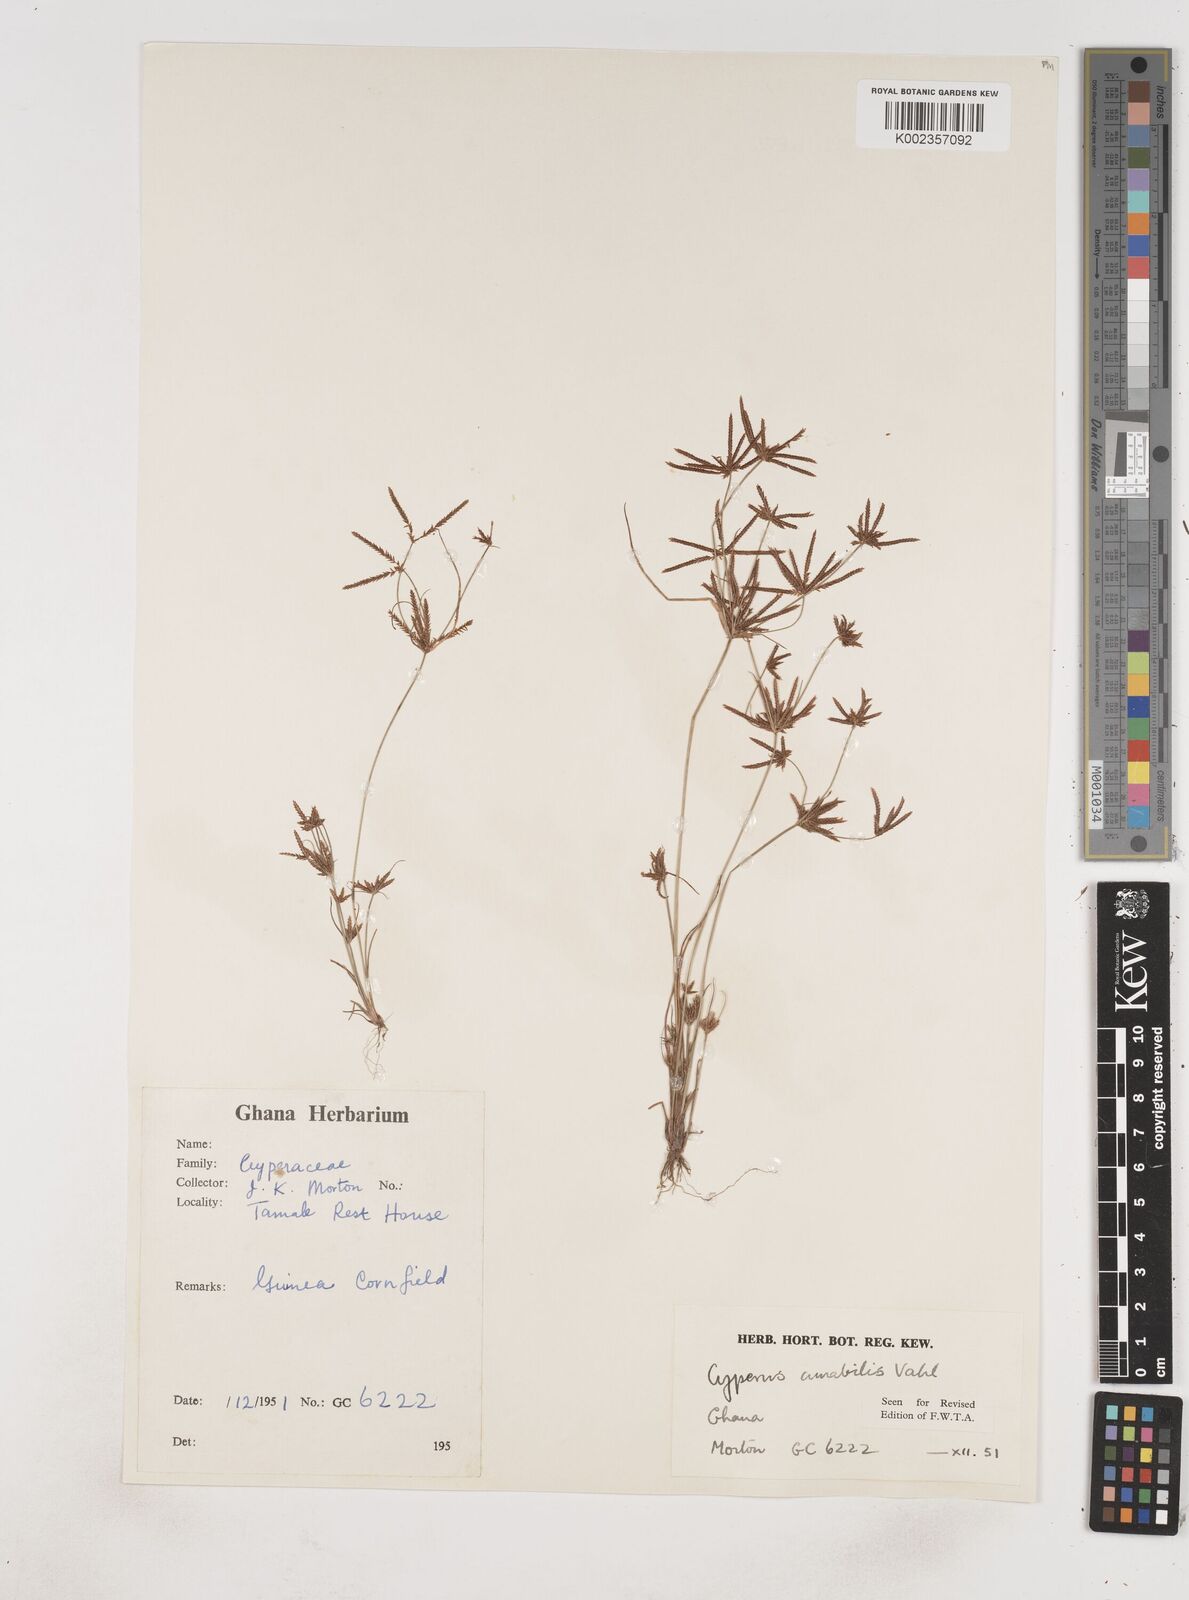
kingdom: Plantae
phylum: Tracheophyta
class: Liliopsida
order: Poales
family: Cyperaceae
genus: Cyperus
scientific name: Cyperus amabilis
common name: Foothill flat sedge
